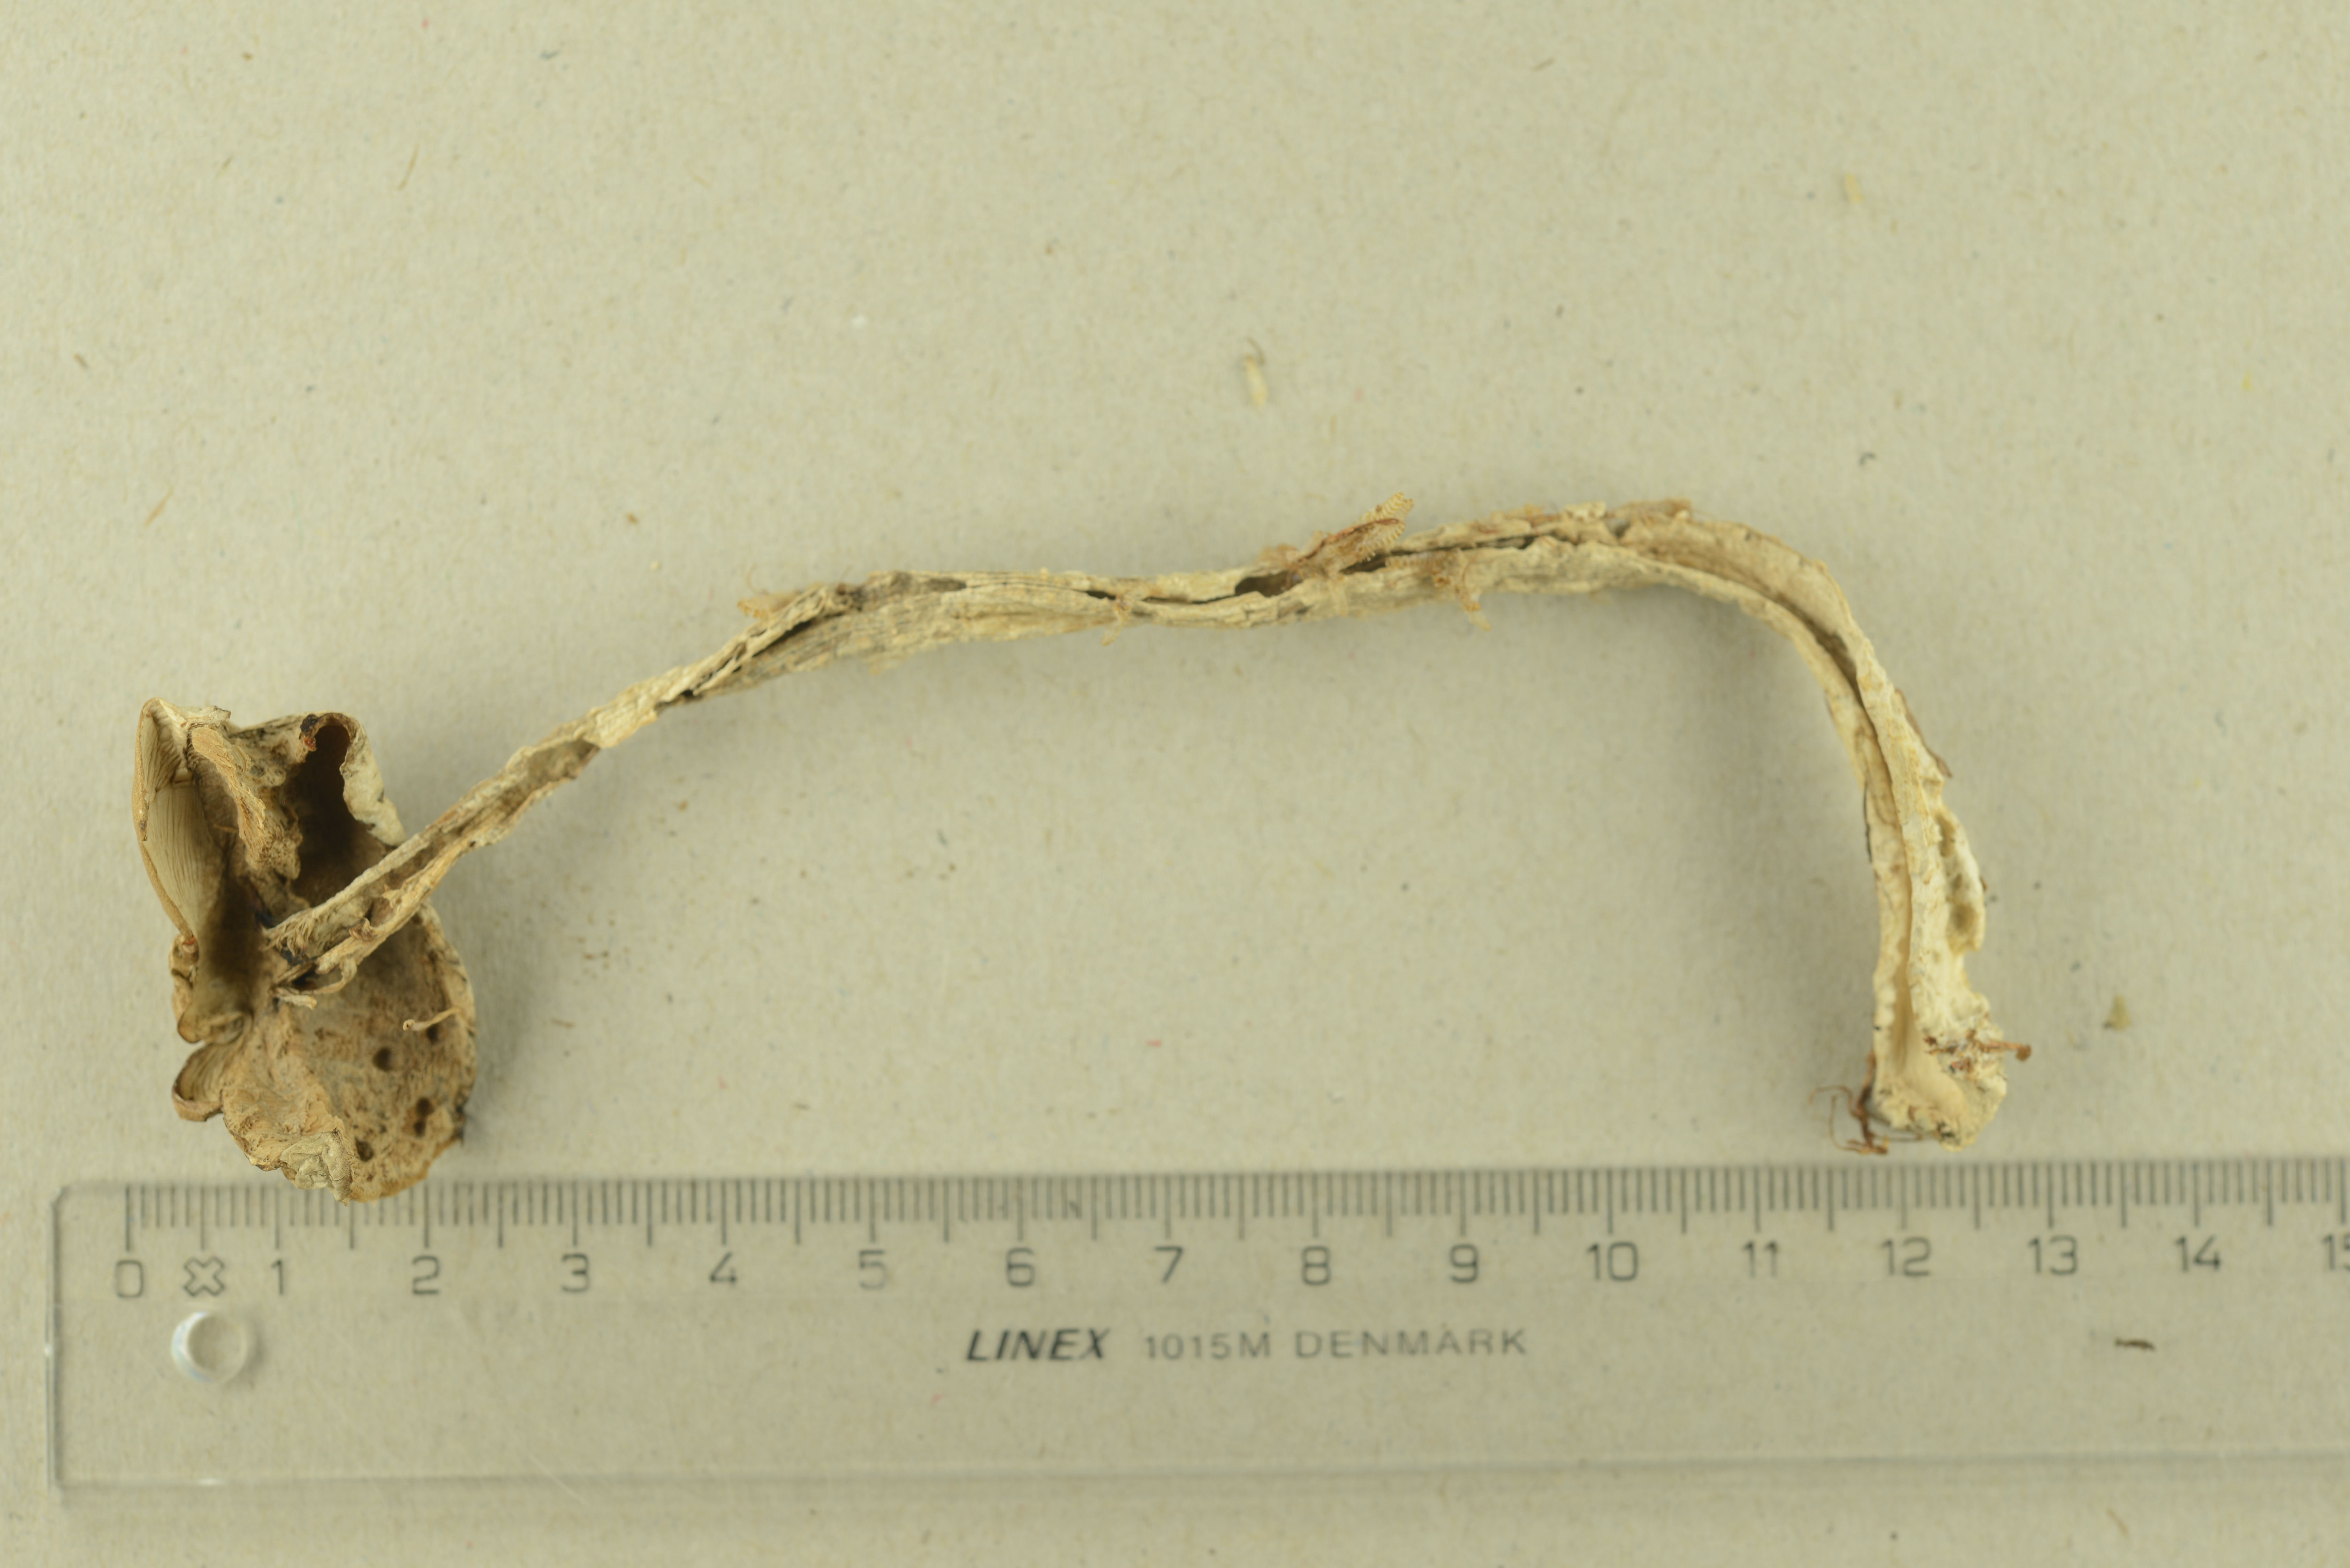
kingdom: Fungi
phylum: Basidiomycota
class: Agaricomycetes
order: Boletales
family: Boletaceae
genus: Leccinum
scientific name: Leccinum cyaneobasileucum
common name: Greyshank bolete
